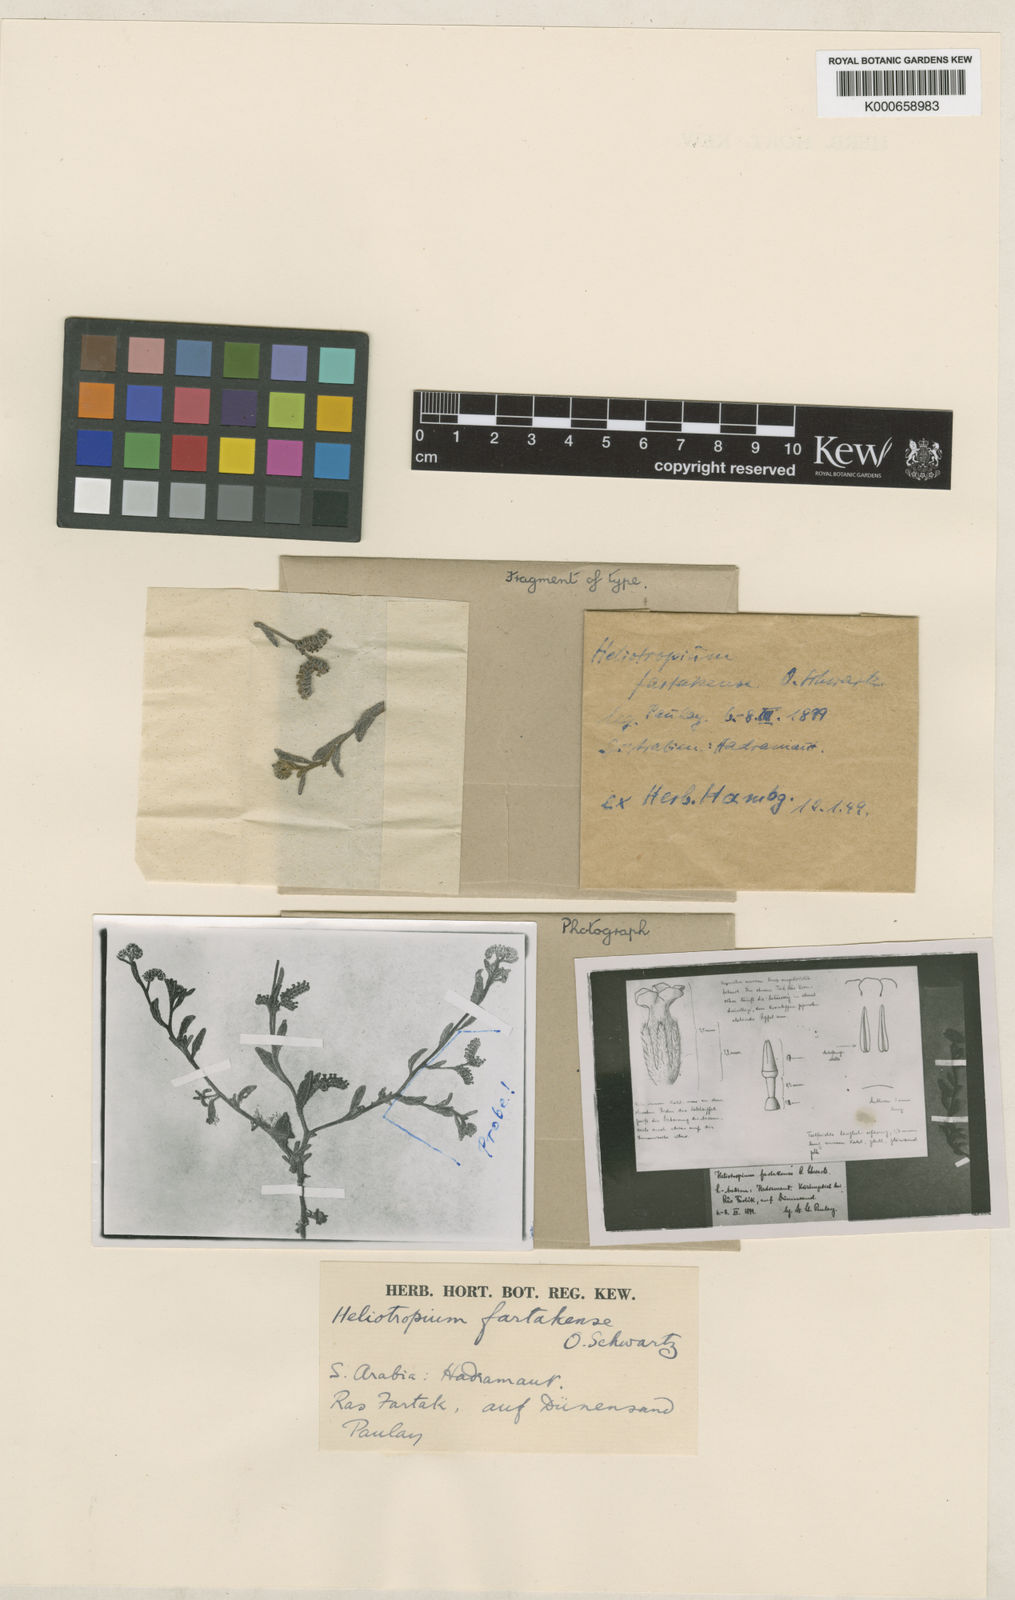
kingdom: Plantae
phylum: Tracheophyta
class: Magnoliopsida
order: Boraginales
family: Heliotropiaceae
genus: Heliotropium
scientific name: Heliotropium bacciferum
